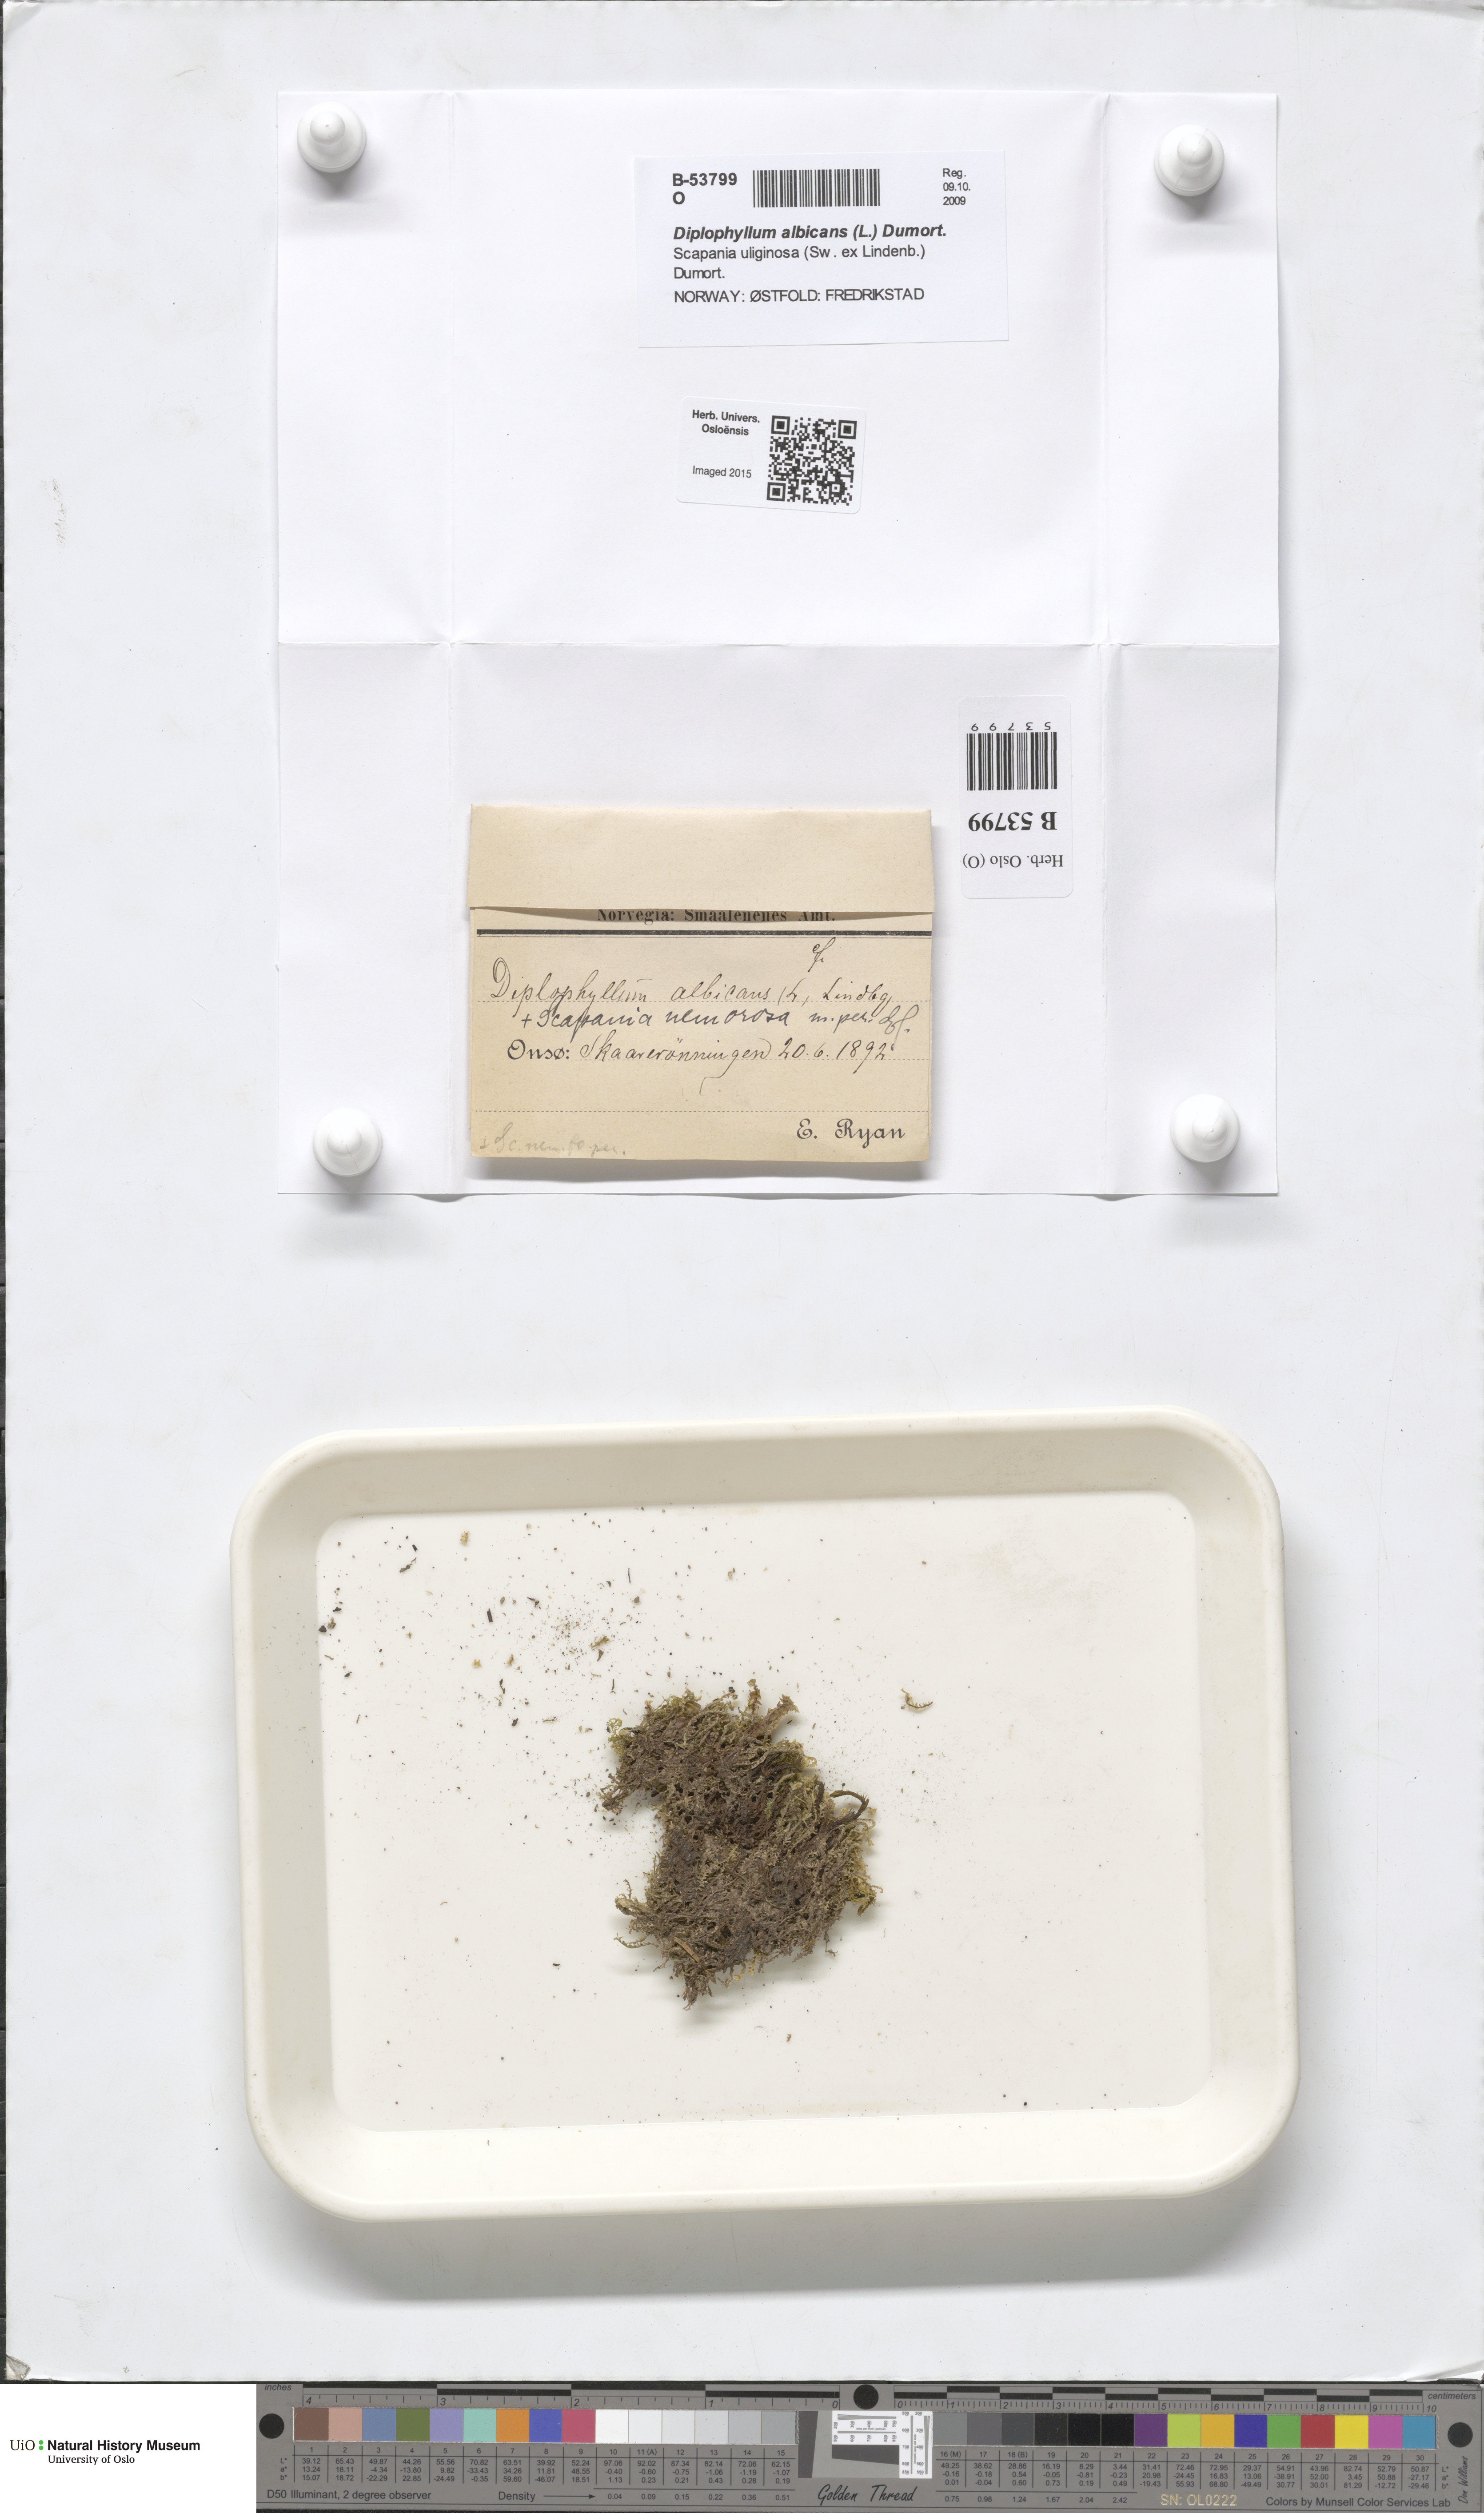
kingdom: Plantae
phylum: Marchantiophyta
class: Jungermanniopsida
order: Jungermanniales
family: Scapaniaceae
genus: Diplophyllum
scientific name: Diplophyllum albicans
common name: White earwort
